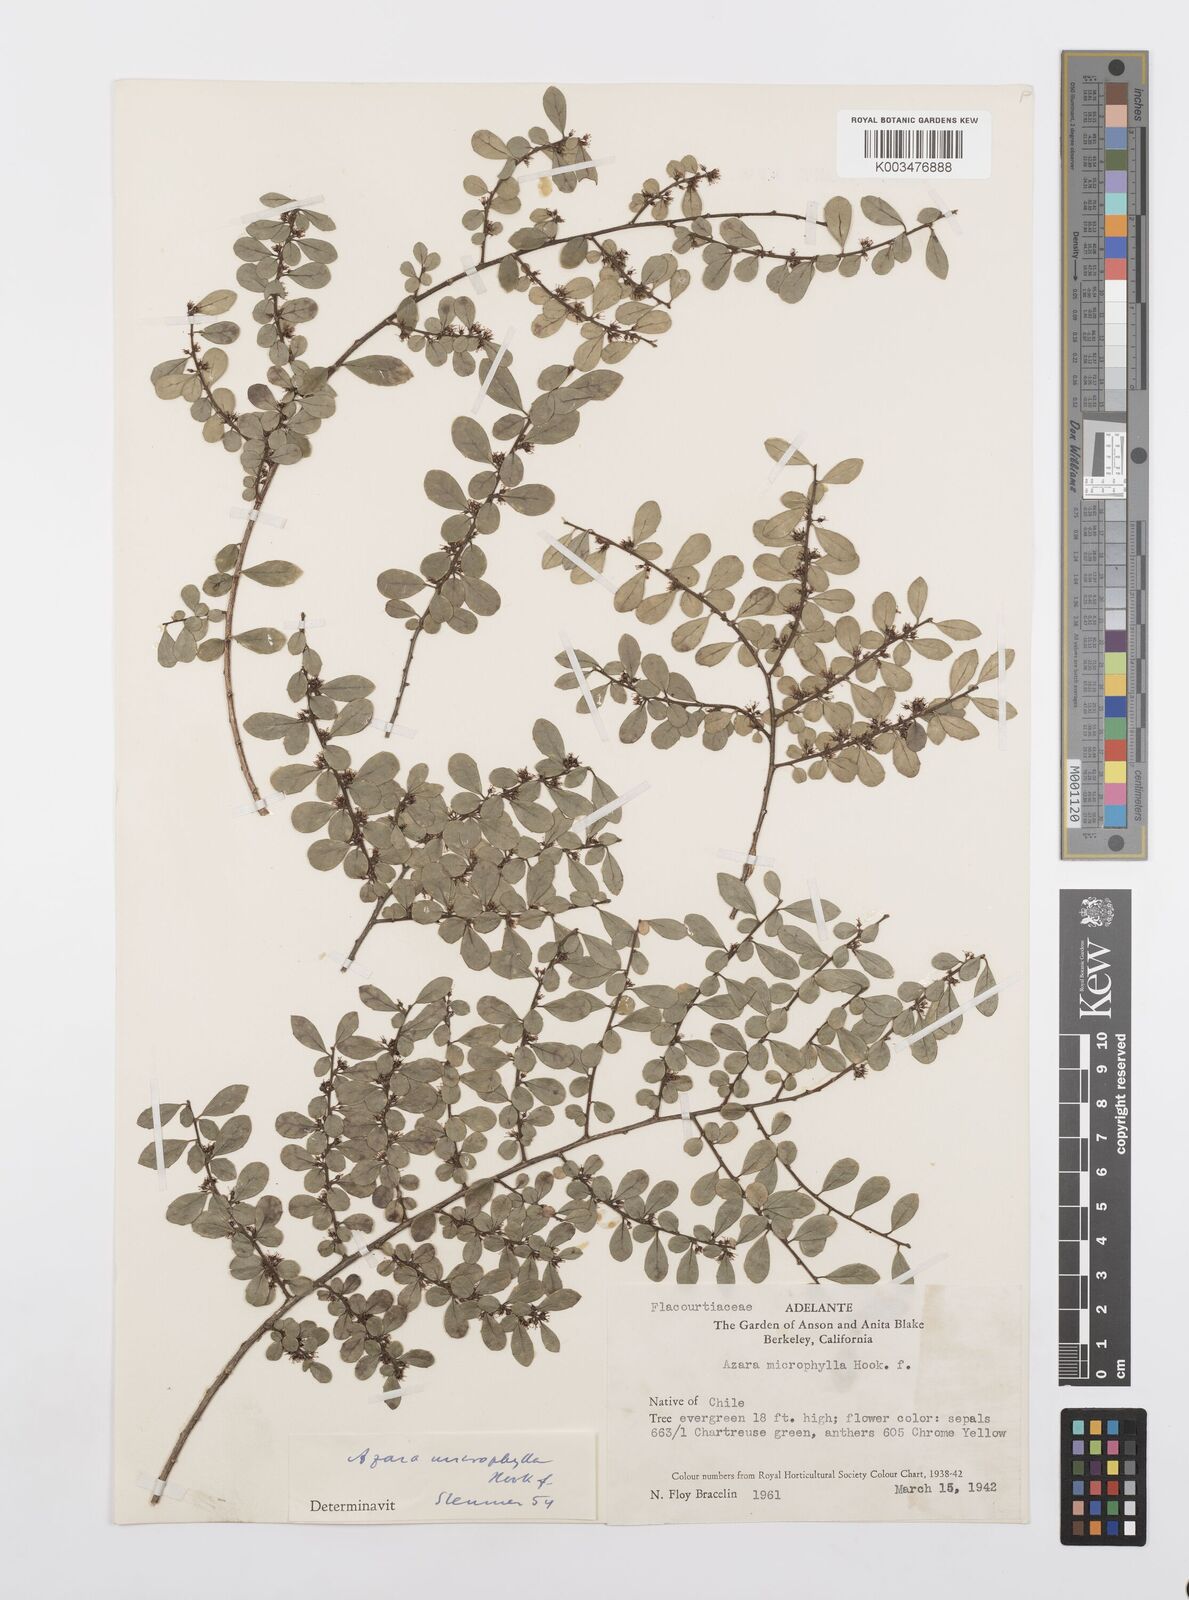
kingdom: Plantae
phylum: Tracheophyta
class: Magnoliopsida
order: Malpighiales
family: Salicaceae
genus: Azara
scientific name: Azara microphylla
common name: Box-leaf azara
